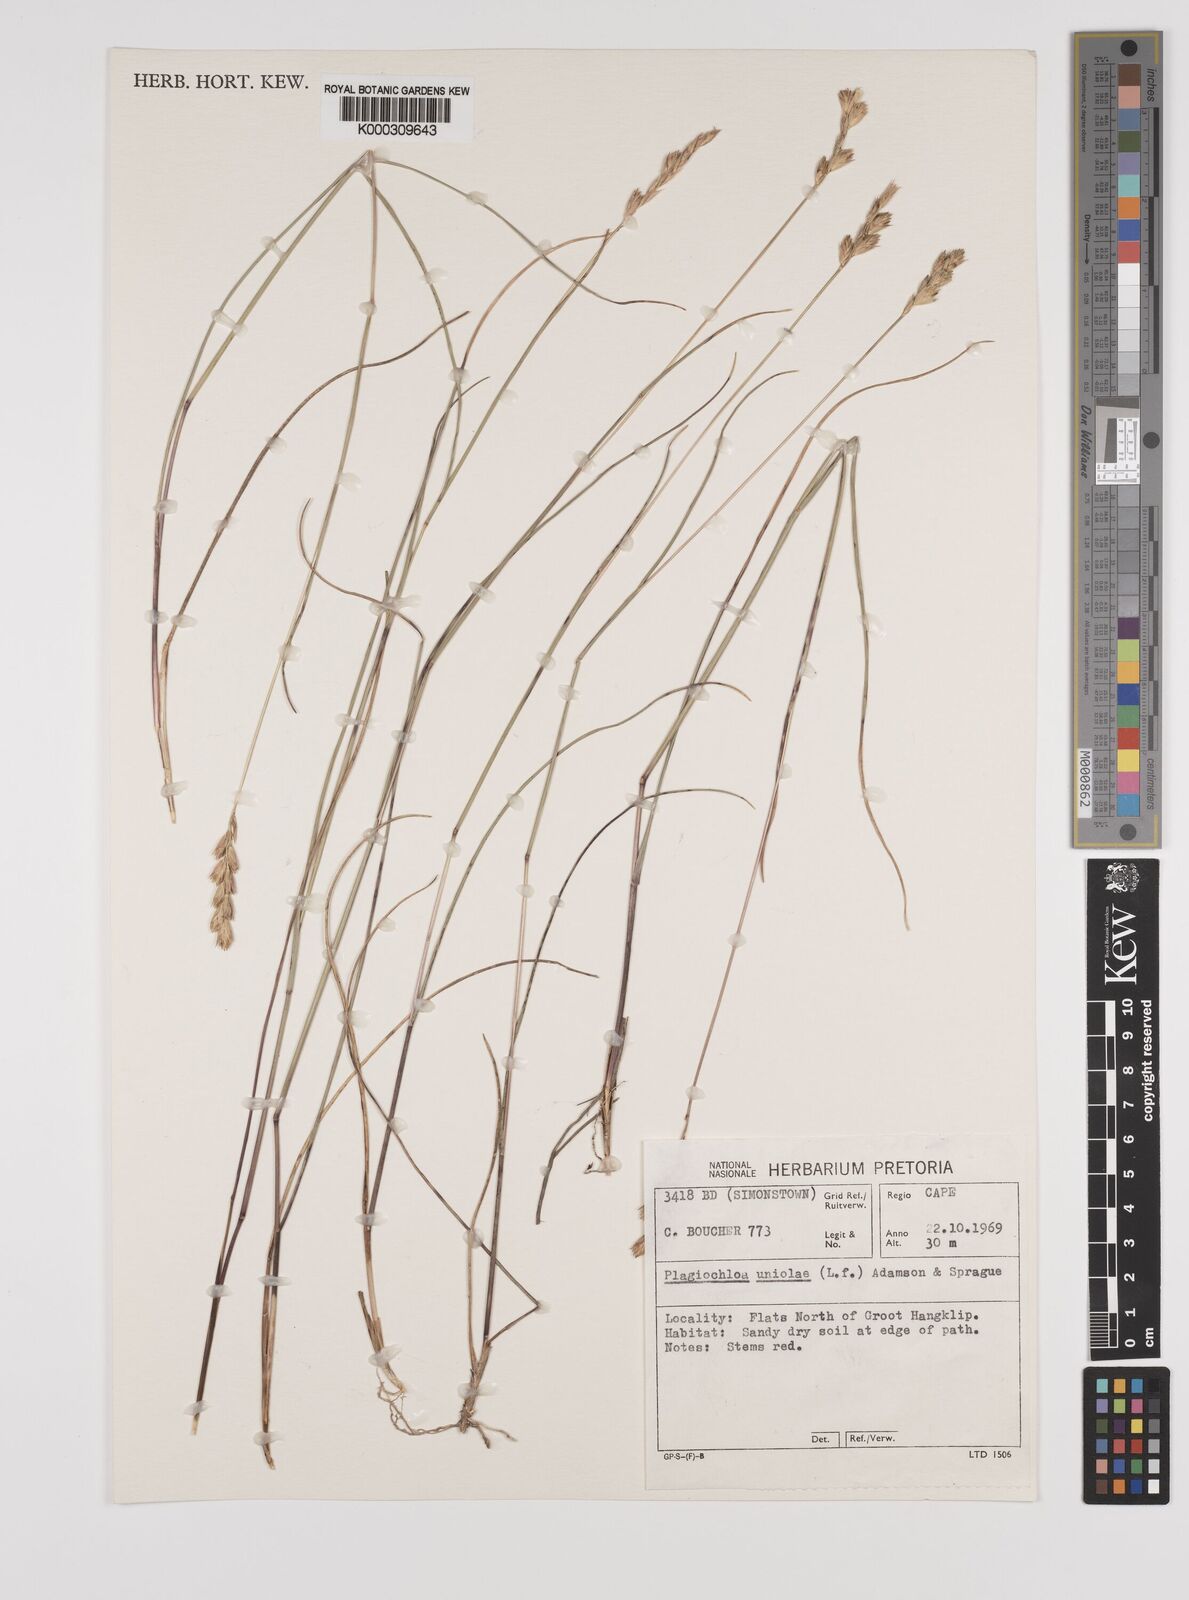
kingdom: Plantae
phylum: Tracheophyta
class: Liliopsida
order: Poales
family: Poaceae
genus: Tribolium
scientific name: Tribolium uniolae
